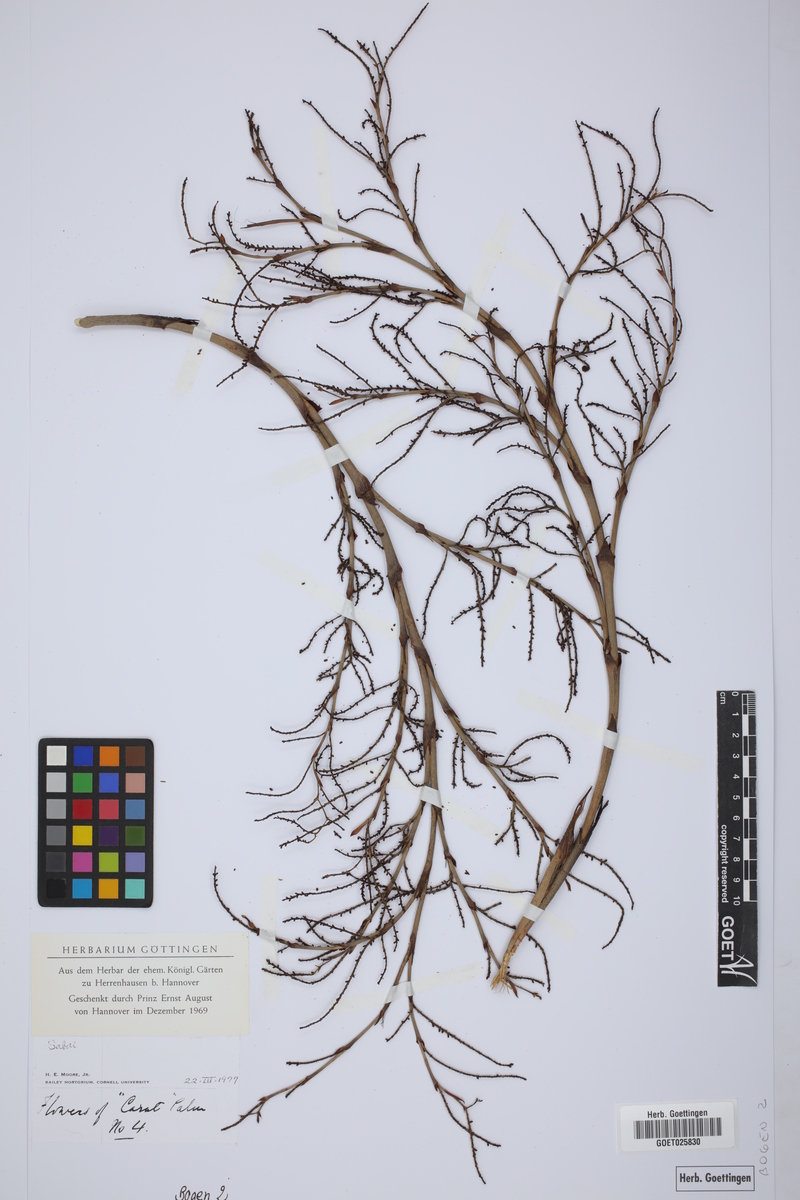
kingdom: Plantae
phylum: Tracheophyta
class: Liliopsida
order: Arecales
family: Arecaceae
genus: Sabal
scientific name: Sabal
